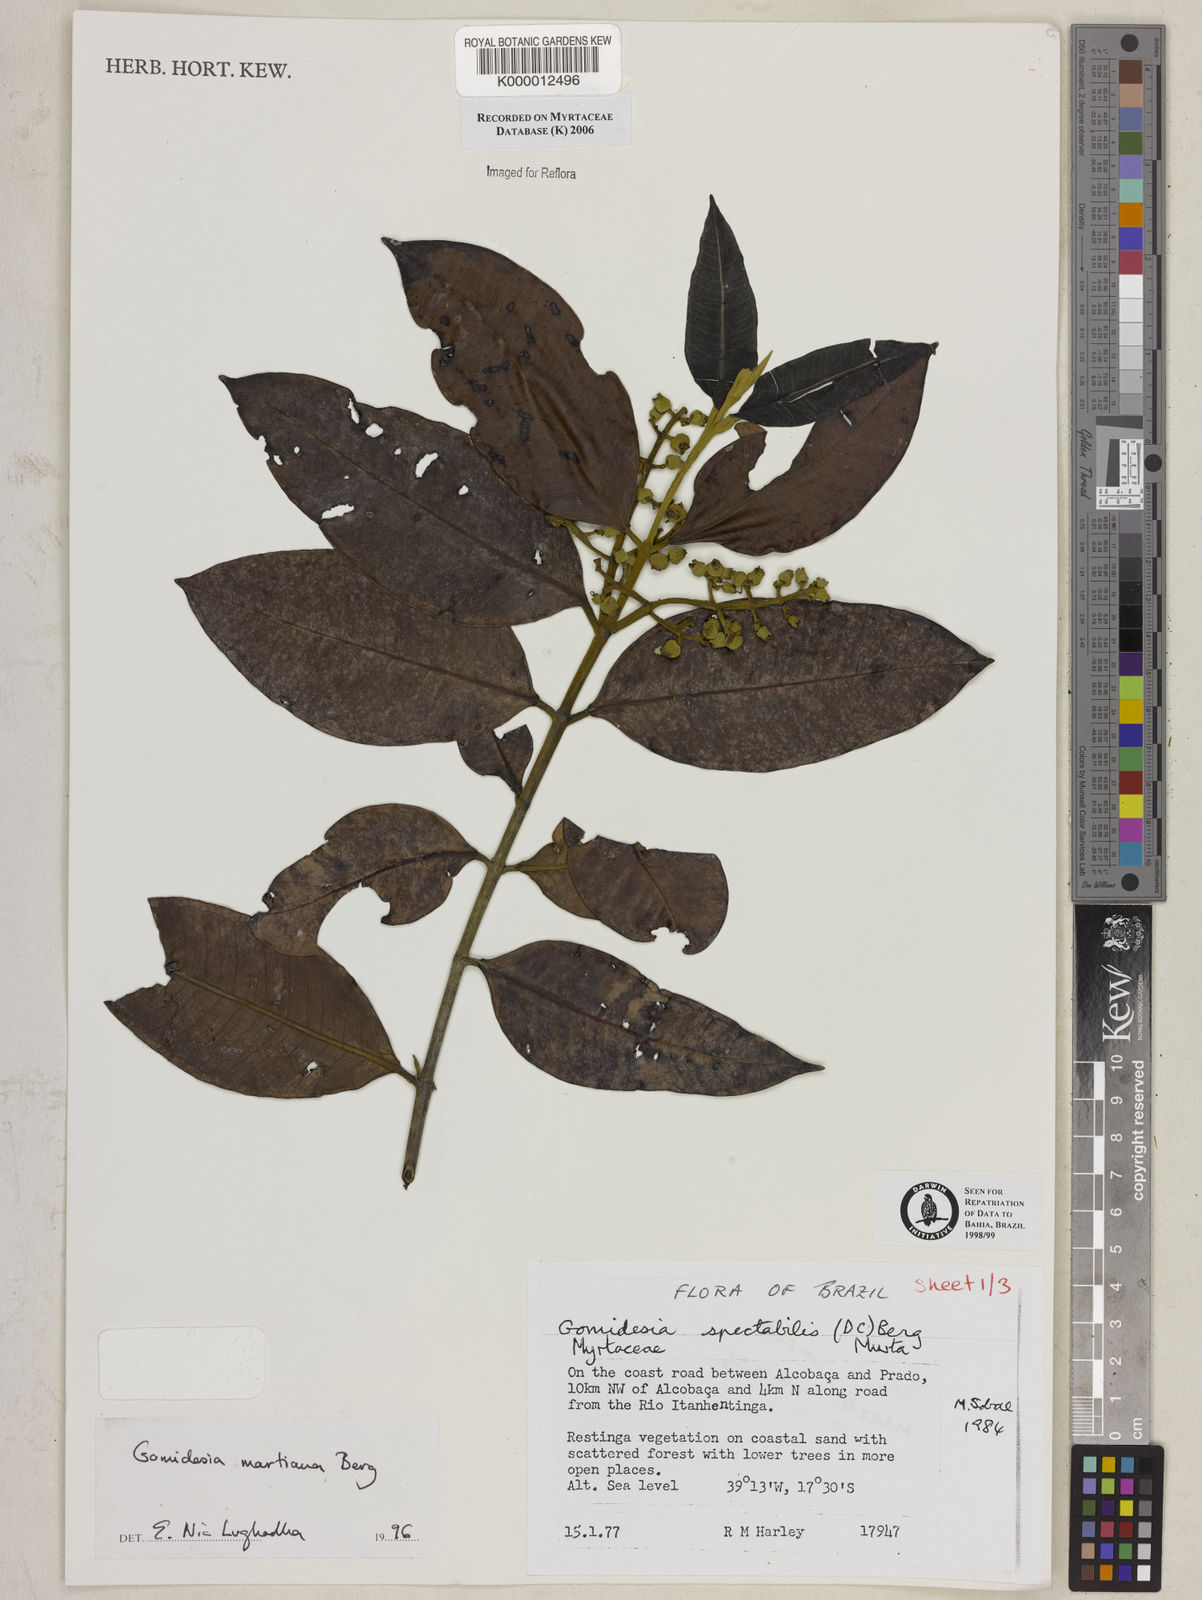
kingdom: Plantae
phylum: Tracheophyta
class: Magnoliopsida
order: Myrtales
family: Myrtaceae
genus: Myrcia
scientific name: Myrcia vittoriana
